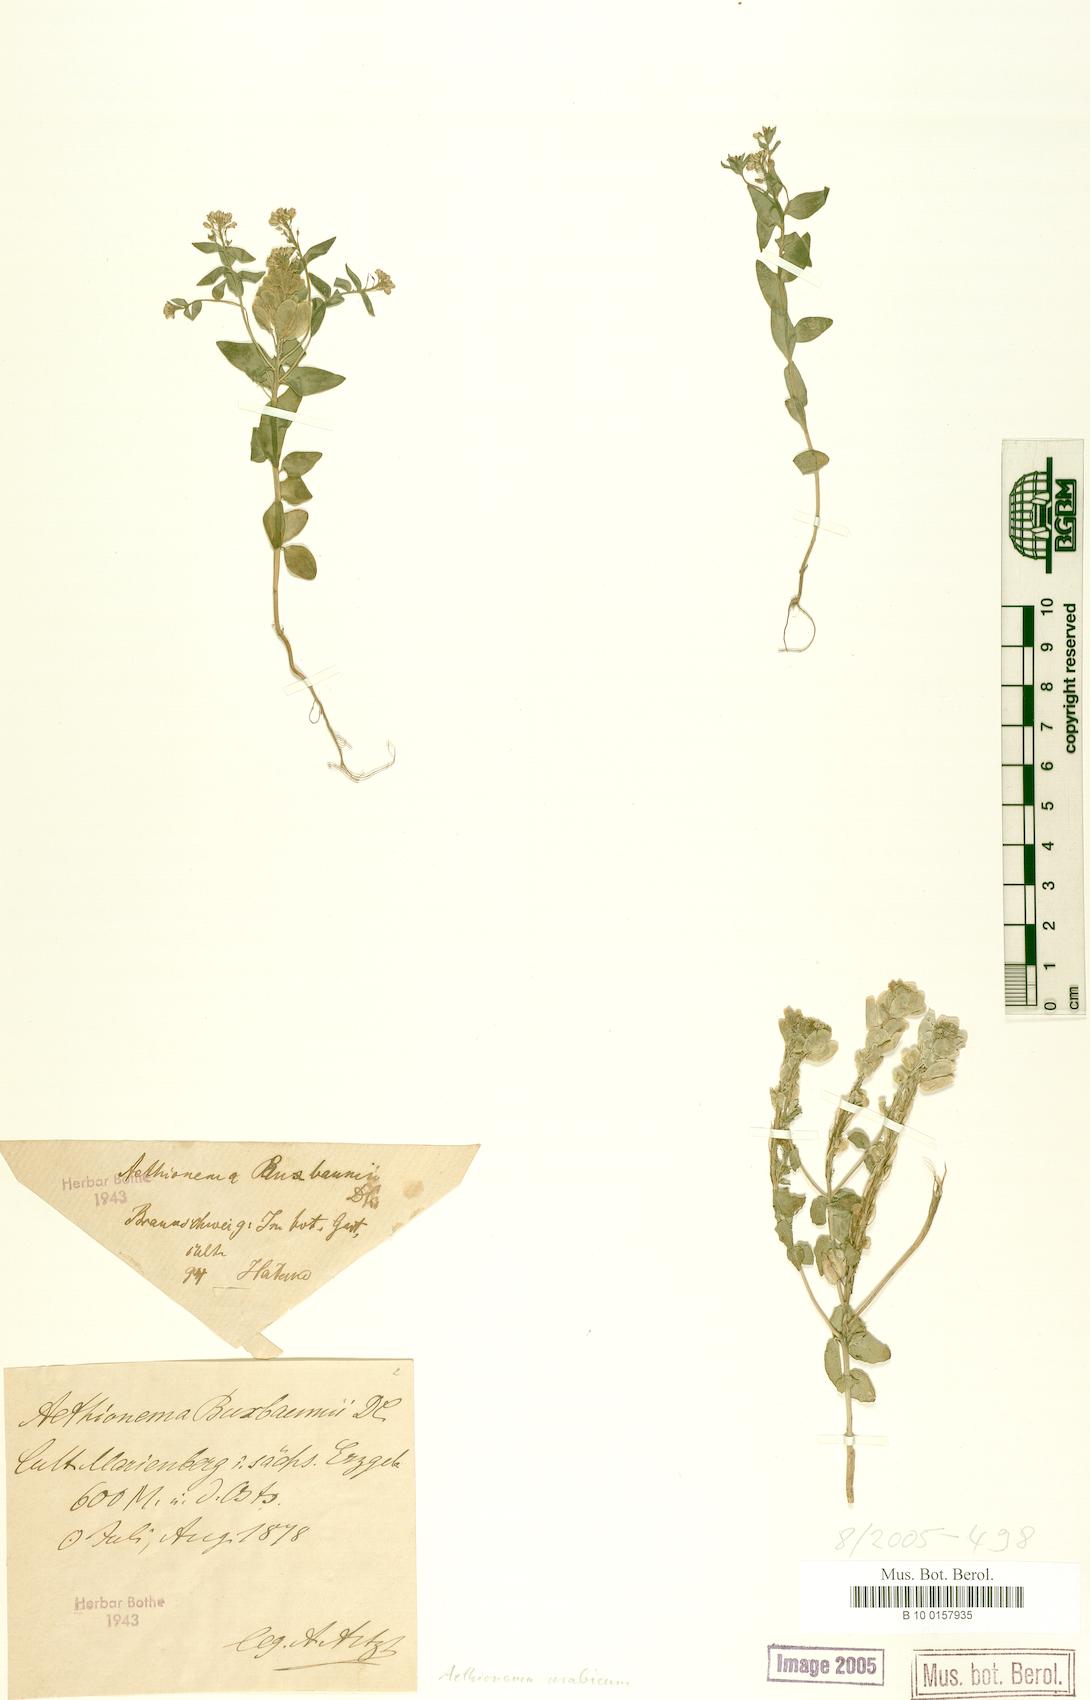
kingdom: Plantae
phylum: Tracheophyta
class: Magnoliopsida
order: Brassicales
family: Brassicaceae
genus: Aethionema
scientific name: Aethionema arabicum
